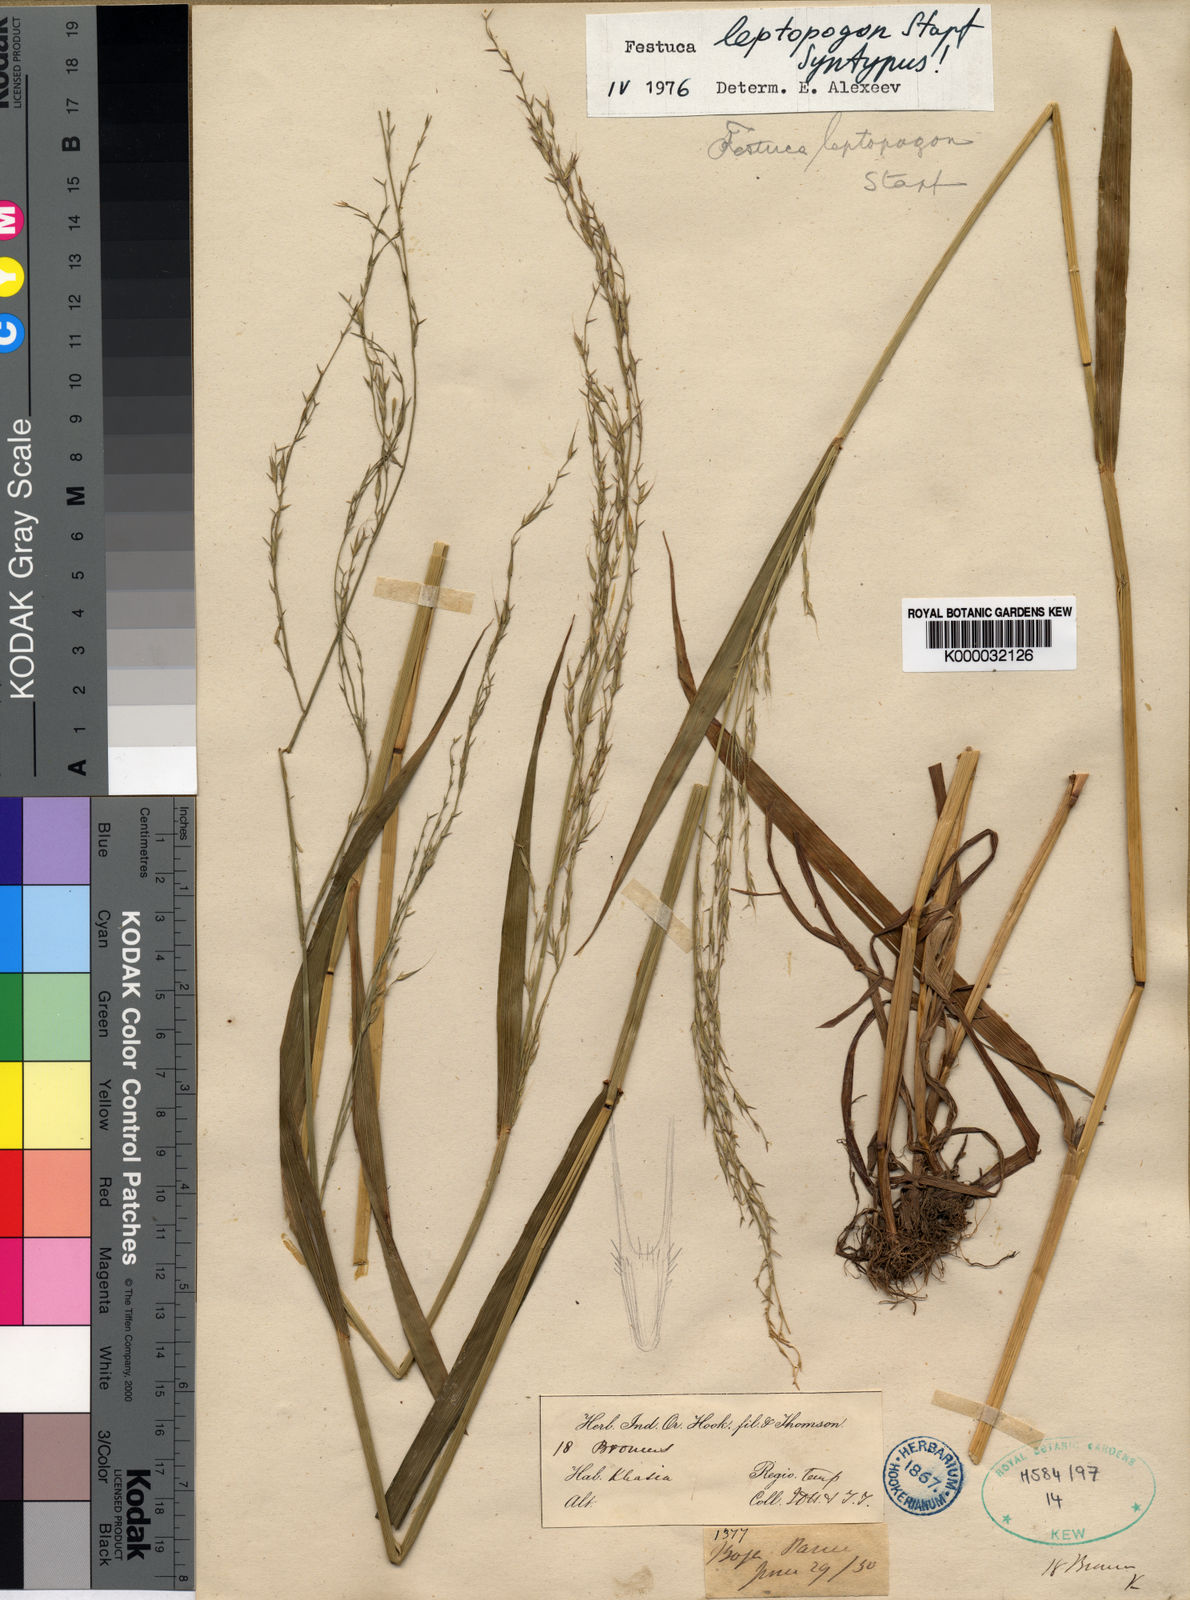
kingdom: Plantae
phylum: Tracheophyta
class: Liliopsida
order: Poales
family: Poaceae
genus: Festuca
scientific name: Festuca leptopogon
